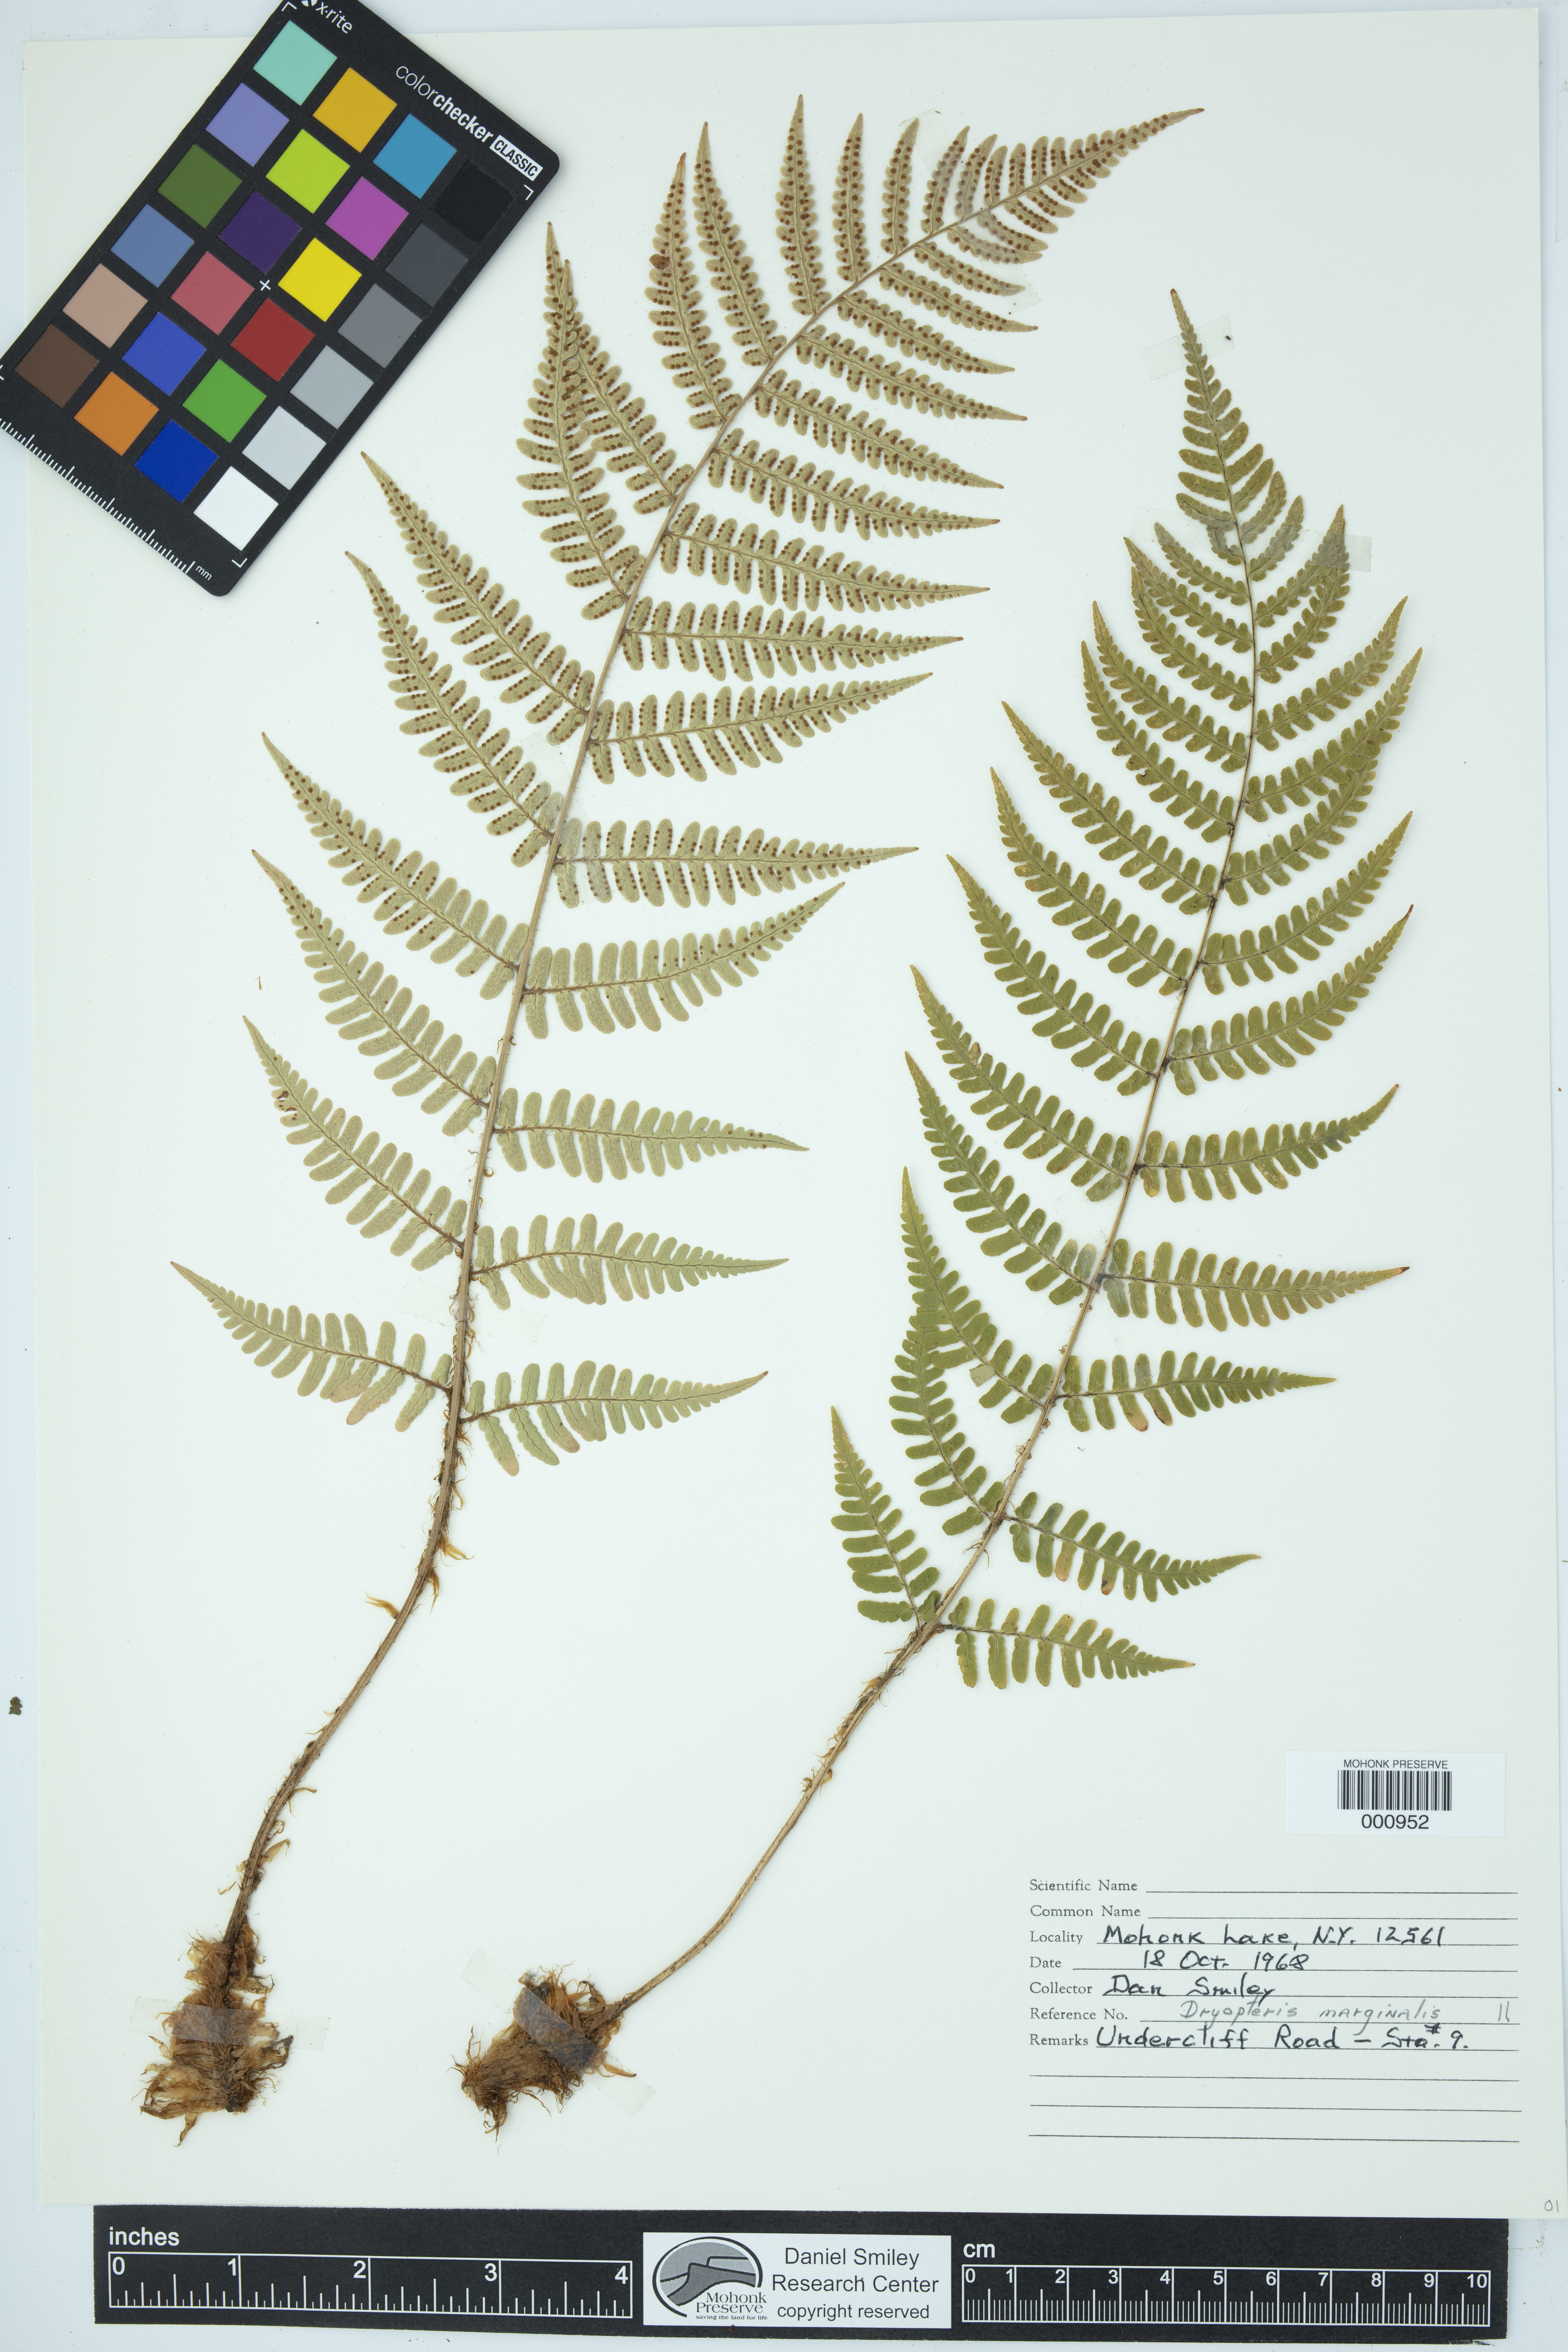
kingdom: Plantae
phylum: Tracheophyta
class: Polypodiopsida
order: Polypodiales
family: Dryopteridaceae
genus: Dryopteris
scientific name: Dryopteris marginalis
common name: Marginal wood fern
